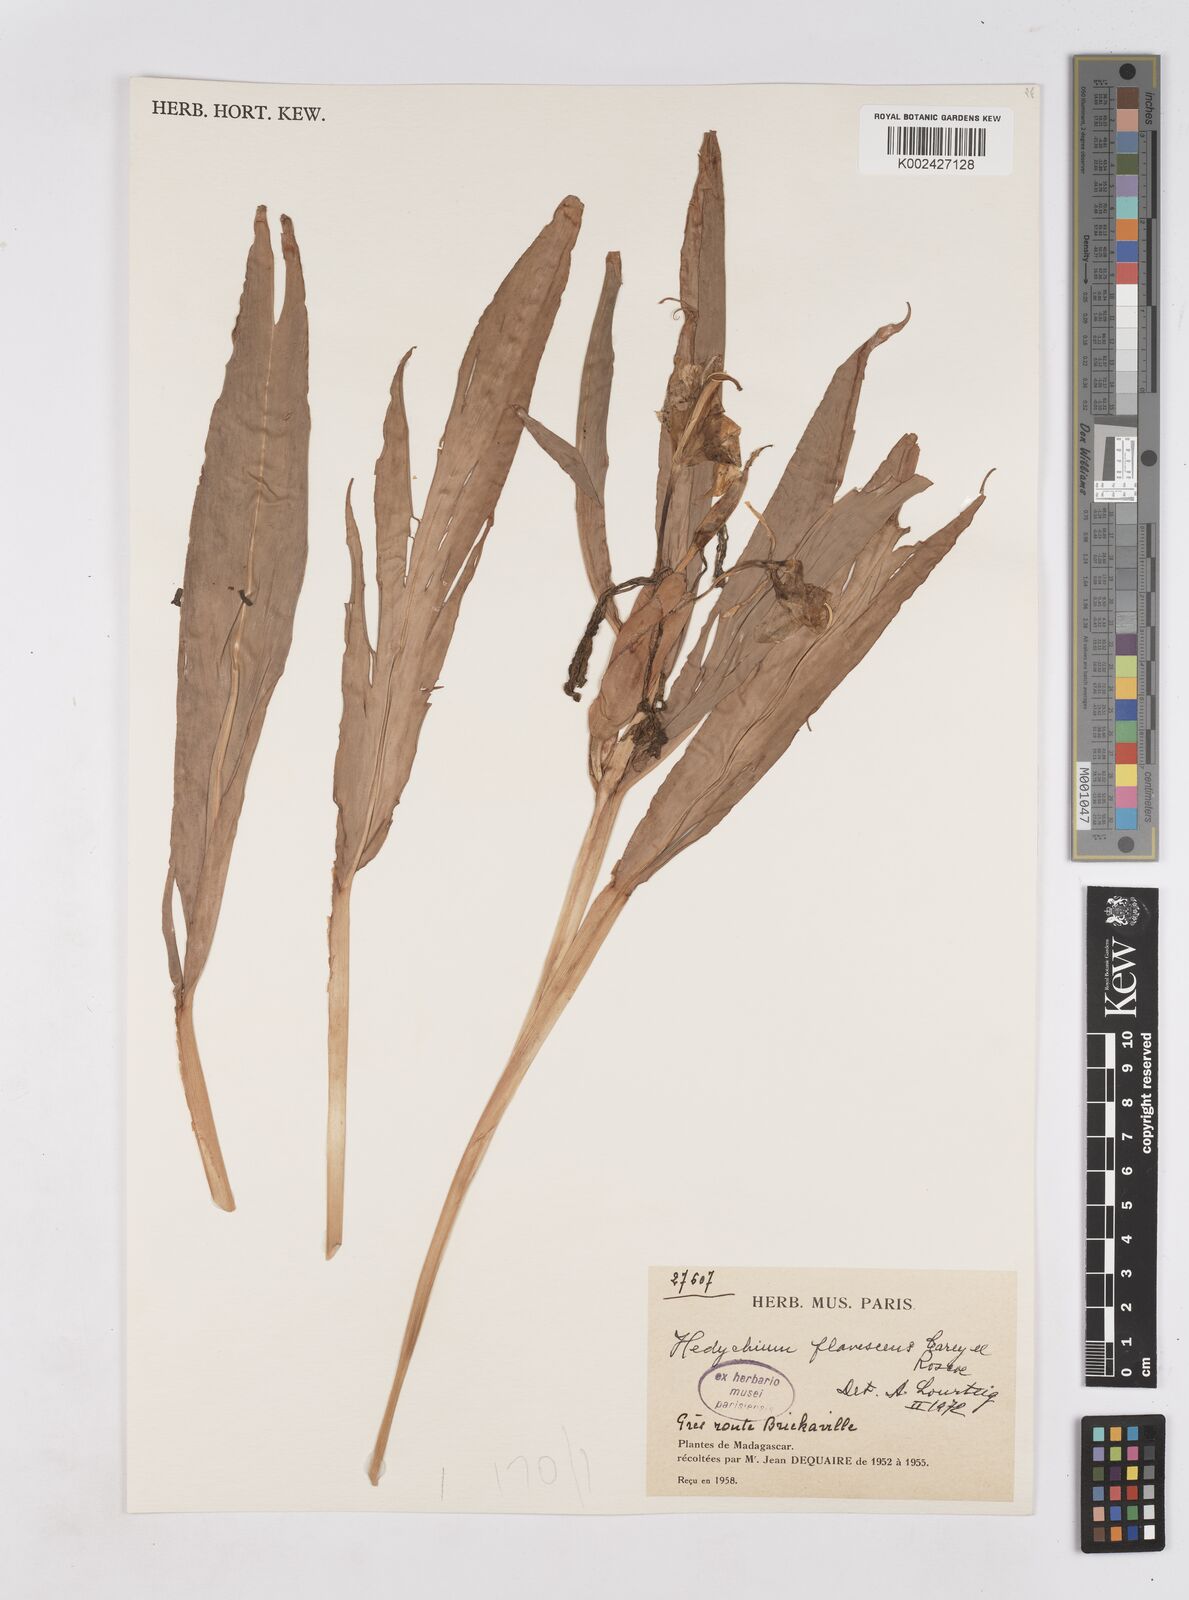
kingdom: Plantae
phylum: Tracheophyta
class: Liliopsida
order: Zingiberales
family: Zingiberaceae
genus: Hedychium
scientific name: Hedychium coronarium
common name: White garland-lily
